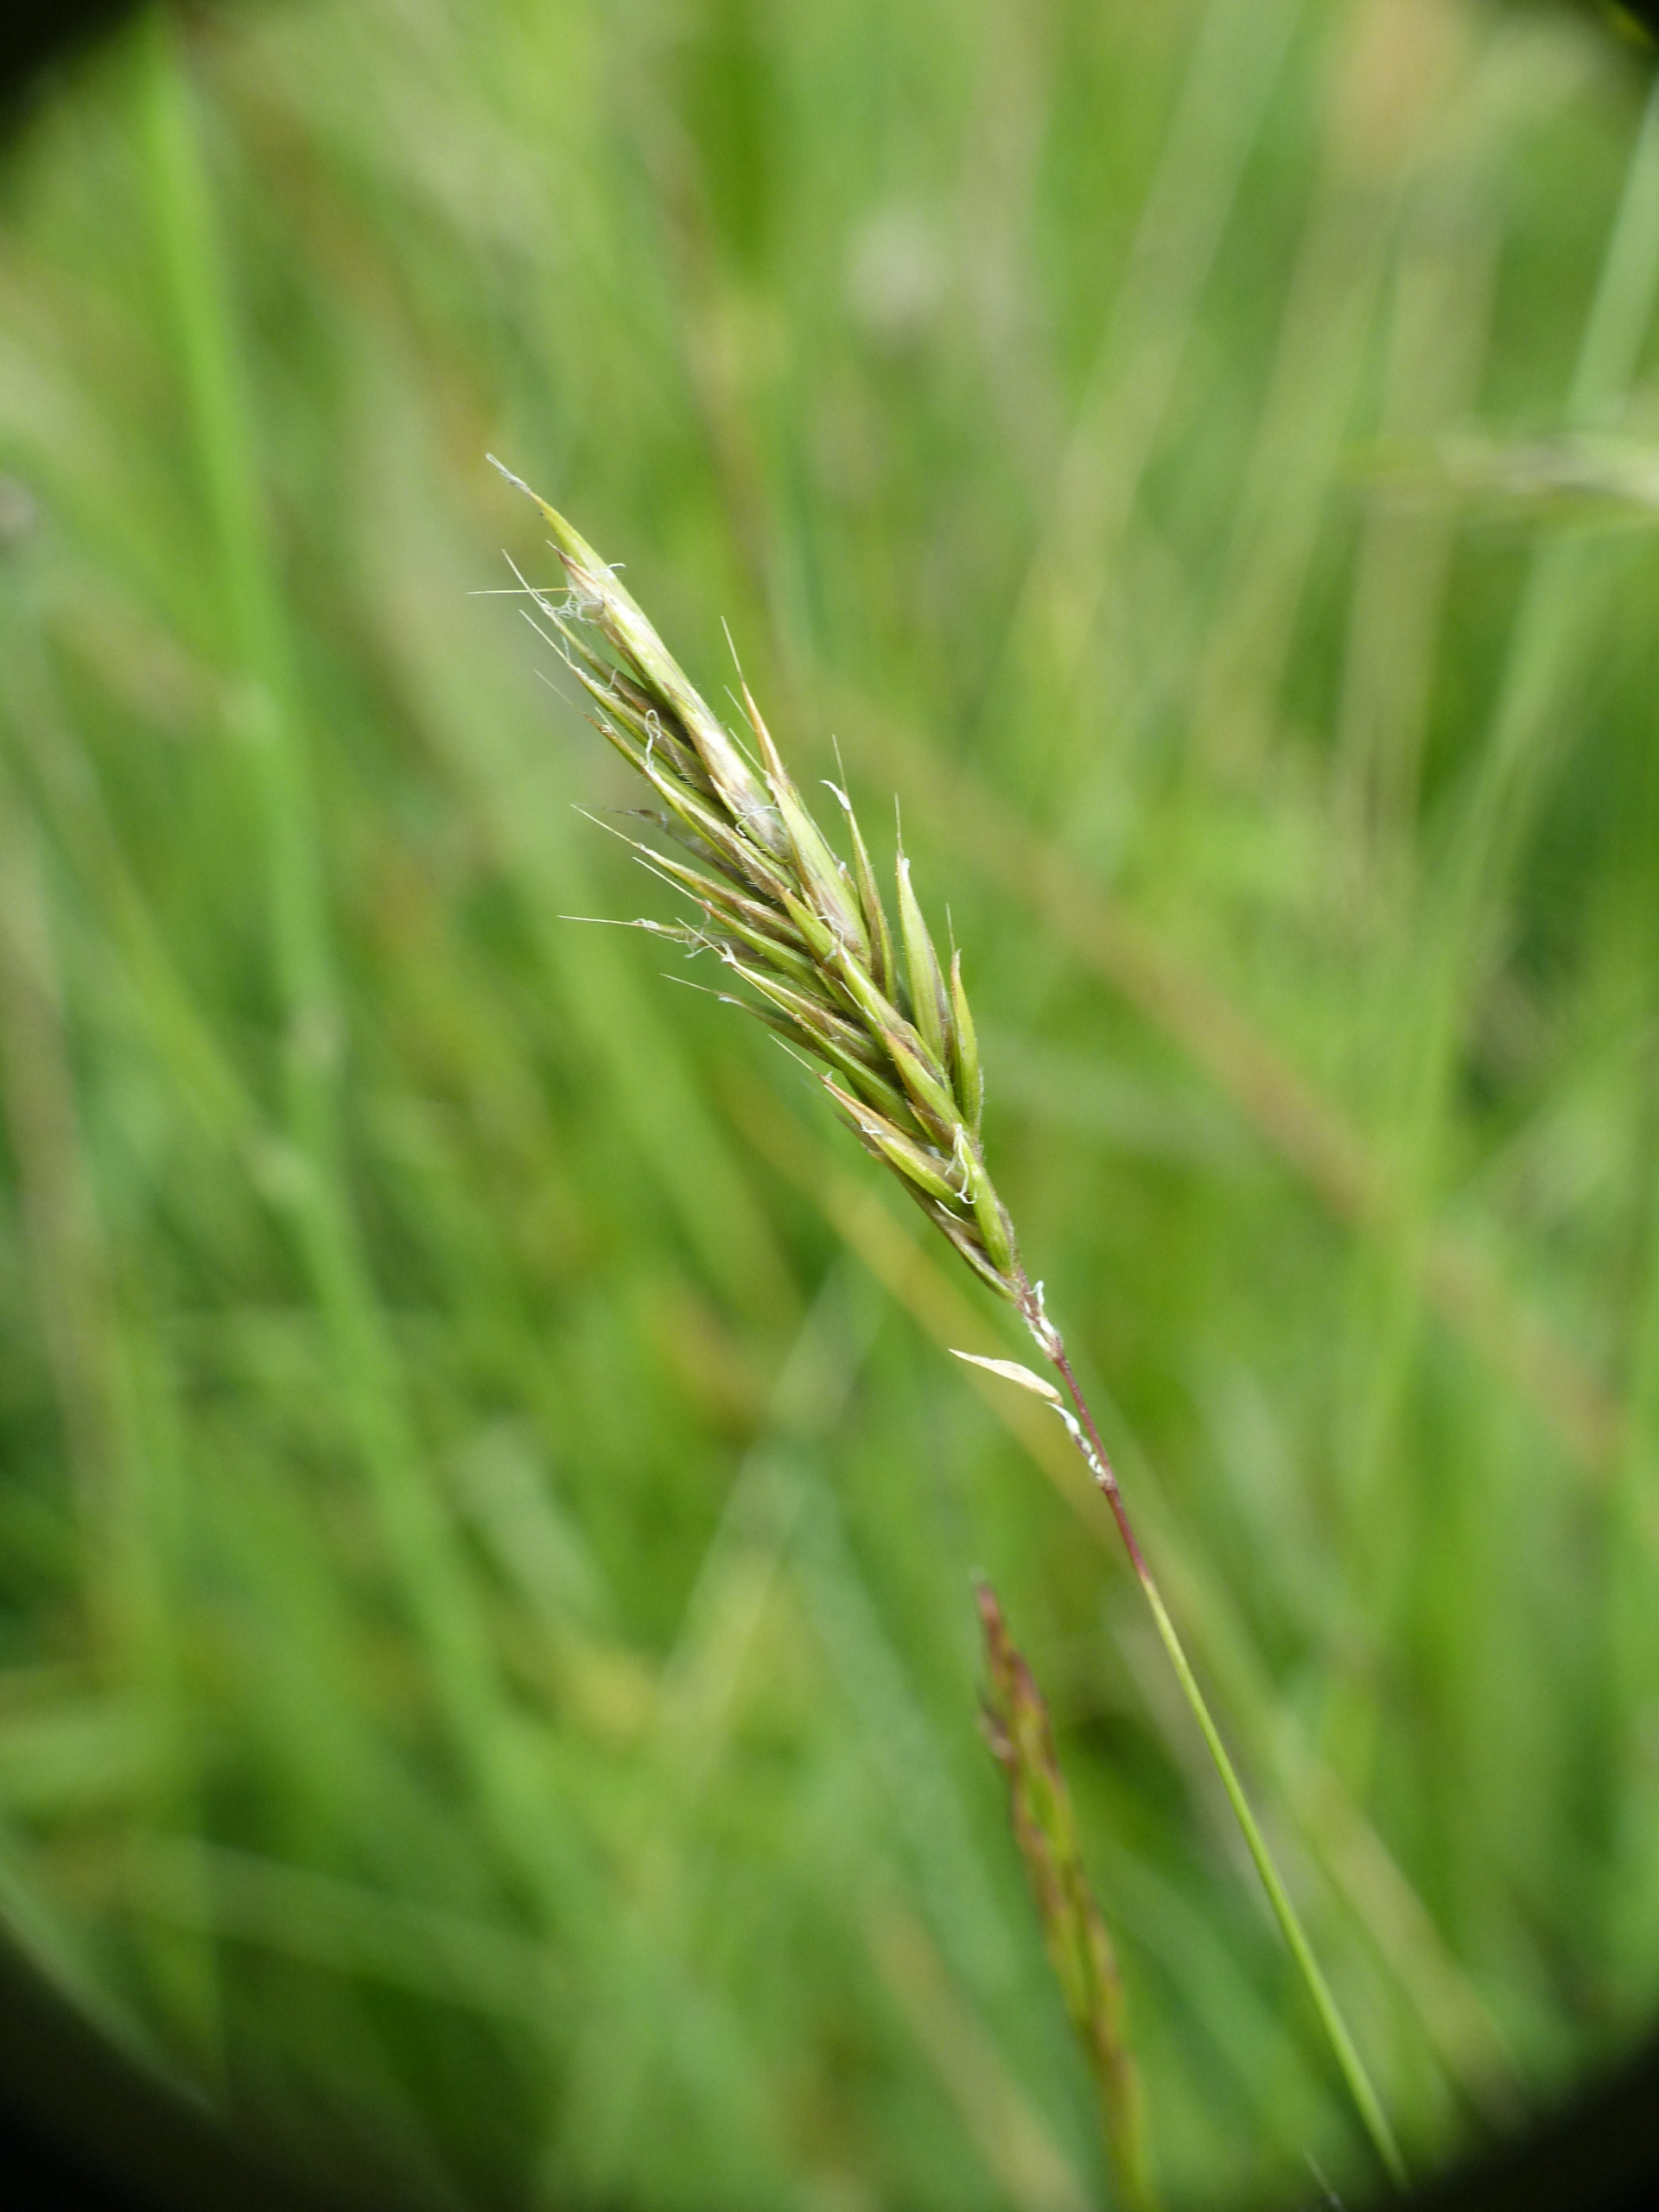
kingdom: Plantae
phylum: Tracheophyta
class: Liliopsida
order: Poales
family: Poaceae
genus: Anthoxanthum
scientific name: Anthoxanthum odoratum
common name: Vellugtende gulaks
